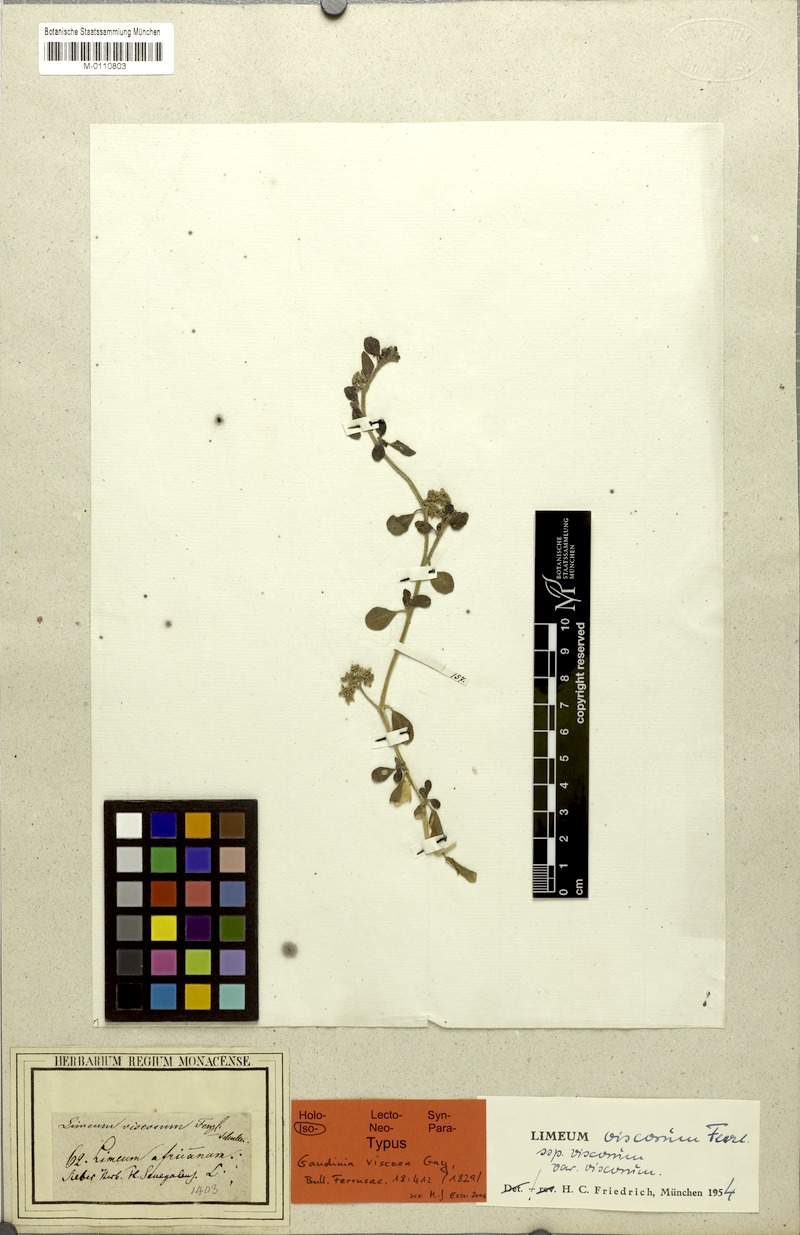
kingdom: Plantae
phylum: Tracheophyta
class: Magnoliopsida
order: Caryophyllales
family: Limeaceae
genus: Limeum
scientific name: Limeum viscosum
